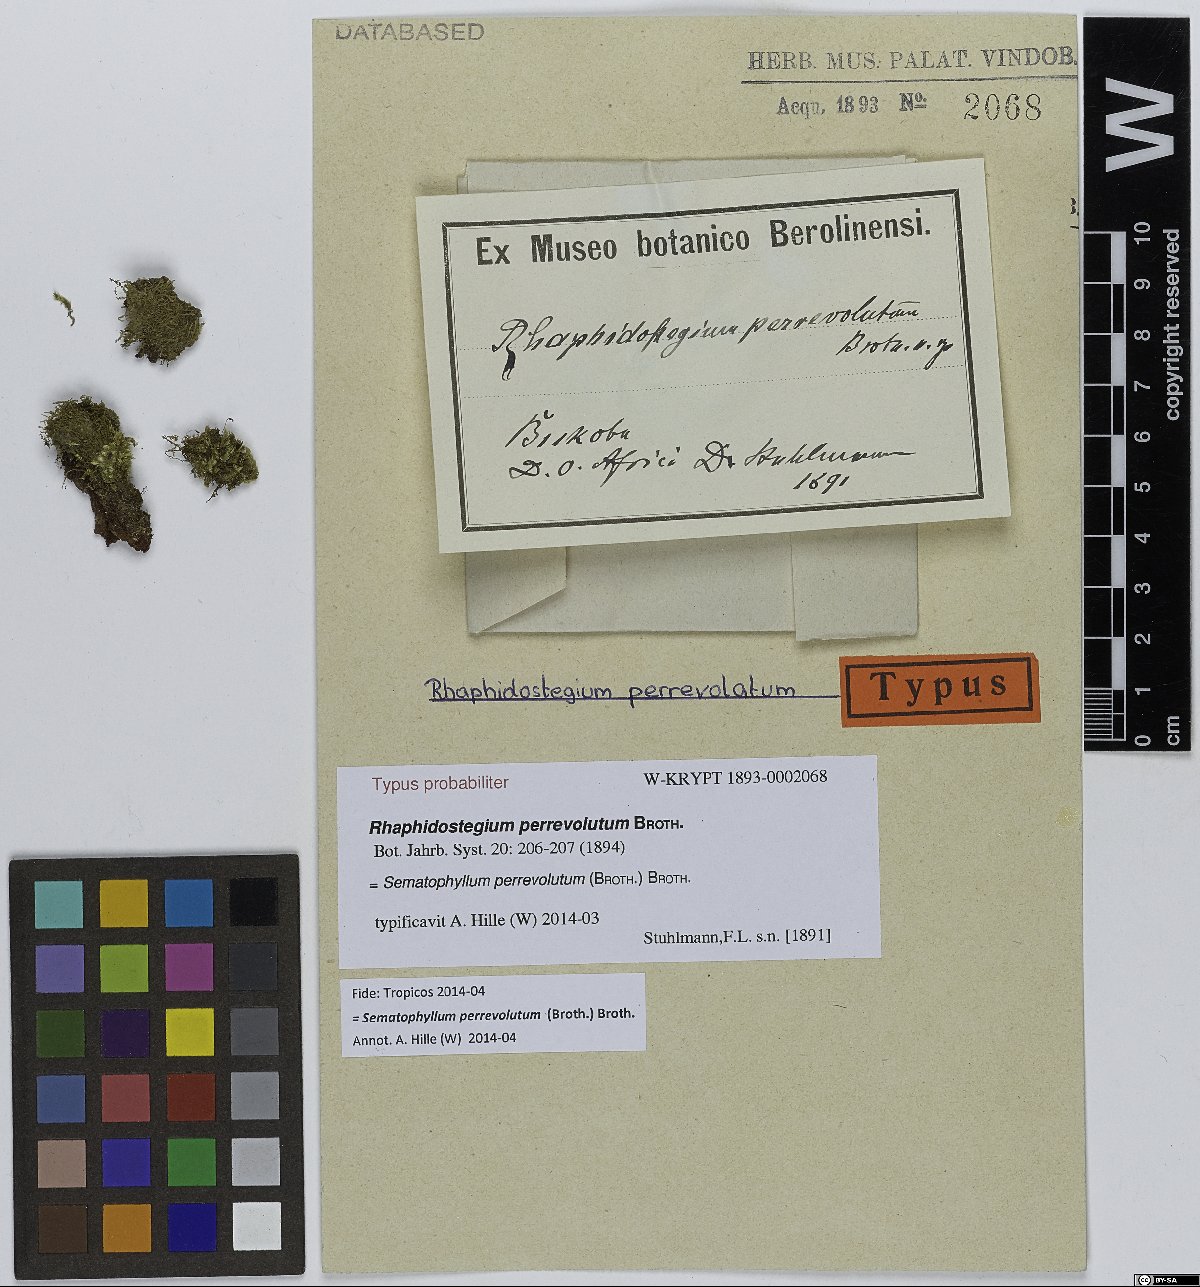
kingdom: Plantae
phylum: Bryophyta
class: Bryopsida
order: Hypnales
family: Sematophyllaceae
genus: Sematophyllum
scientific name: Sematophyllum perrevolutum
